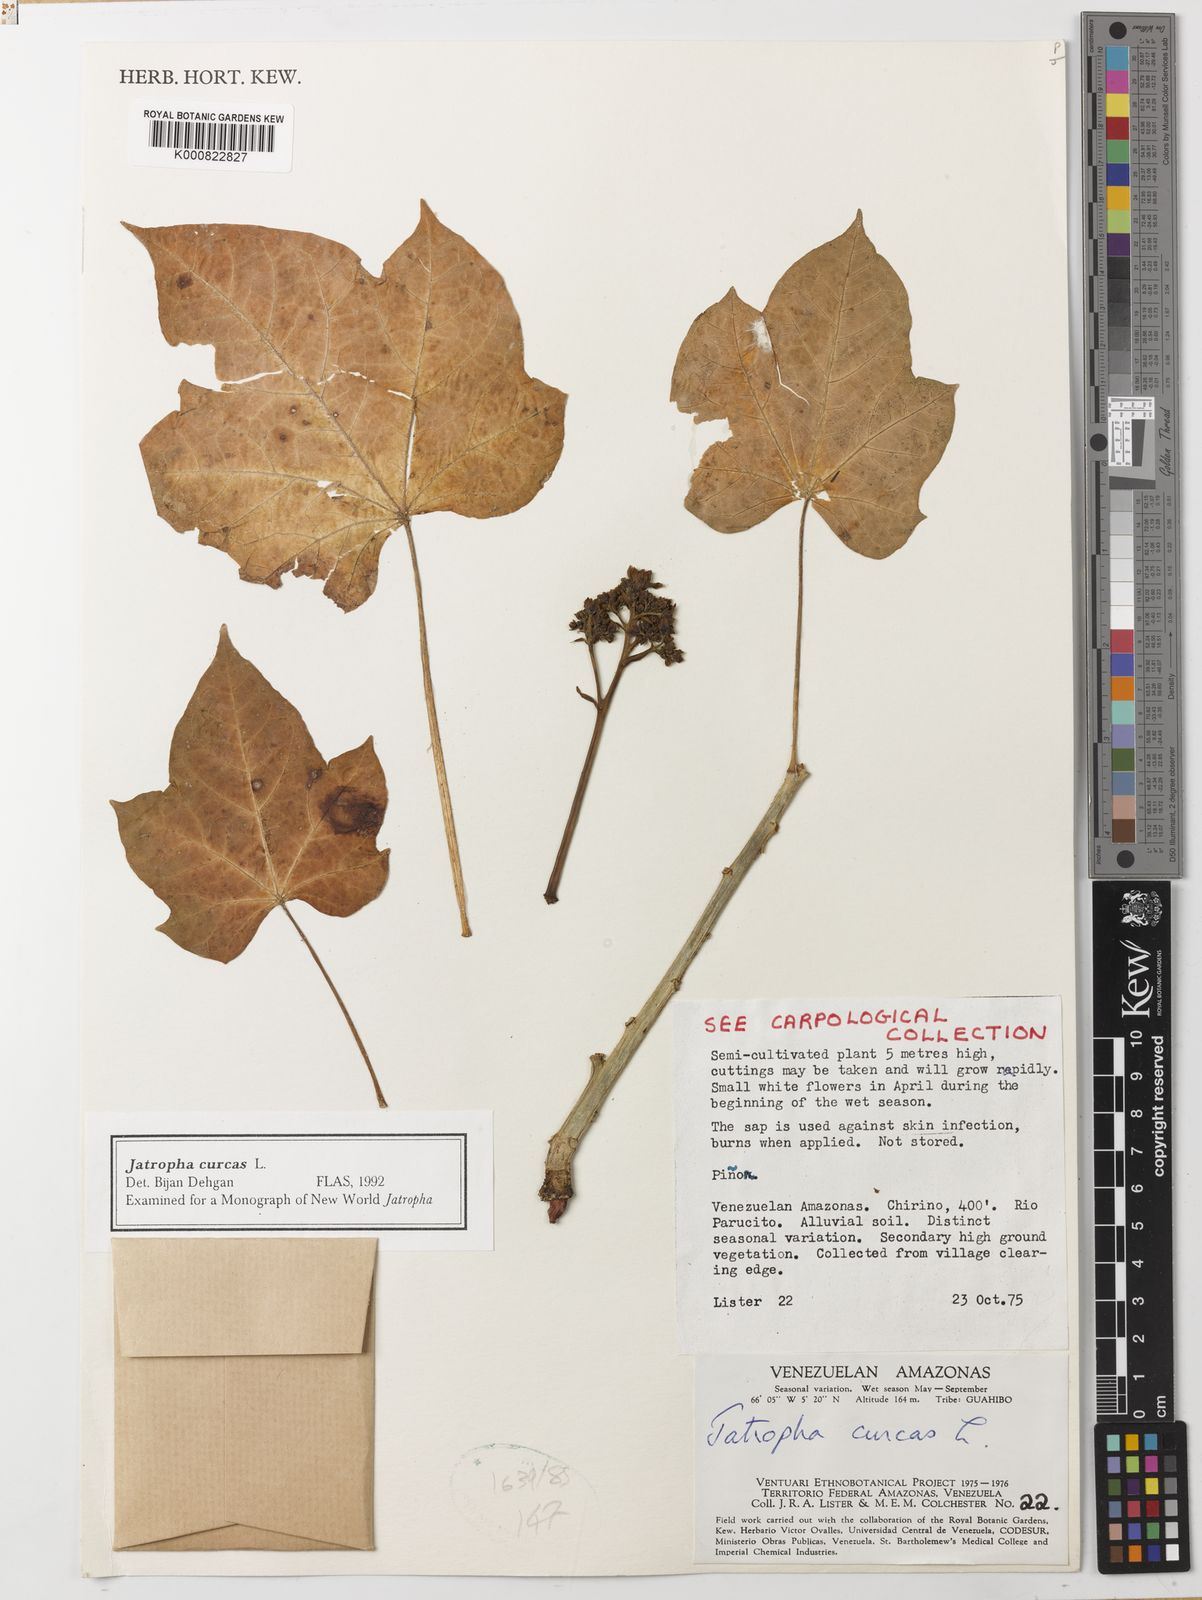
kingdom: Plantae
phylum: Tracheophyta
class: Magnoliopsida
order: Malpighiales
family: Euphorbiaceae
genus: Jatropha
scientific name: Jatropha curcas
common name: Barbados nut
